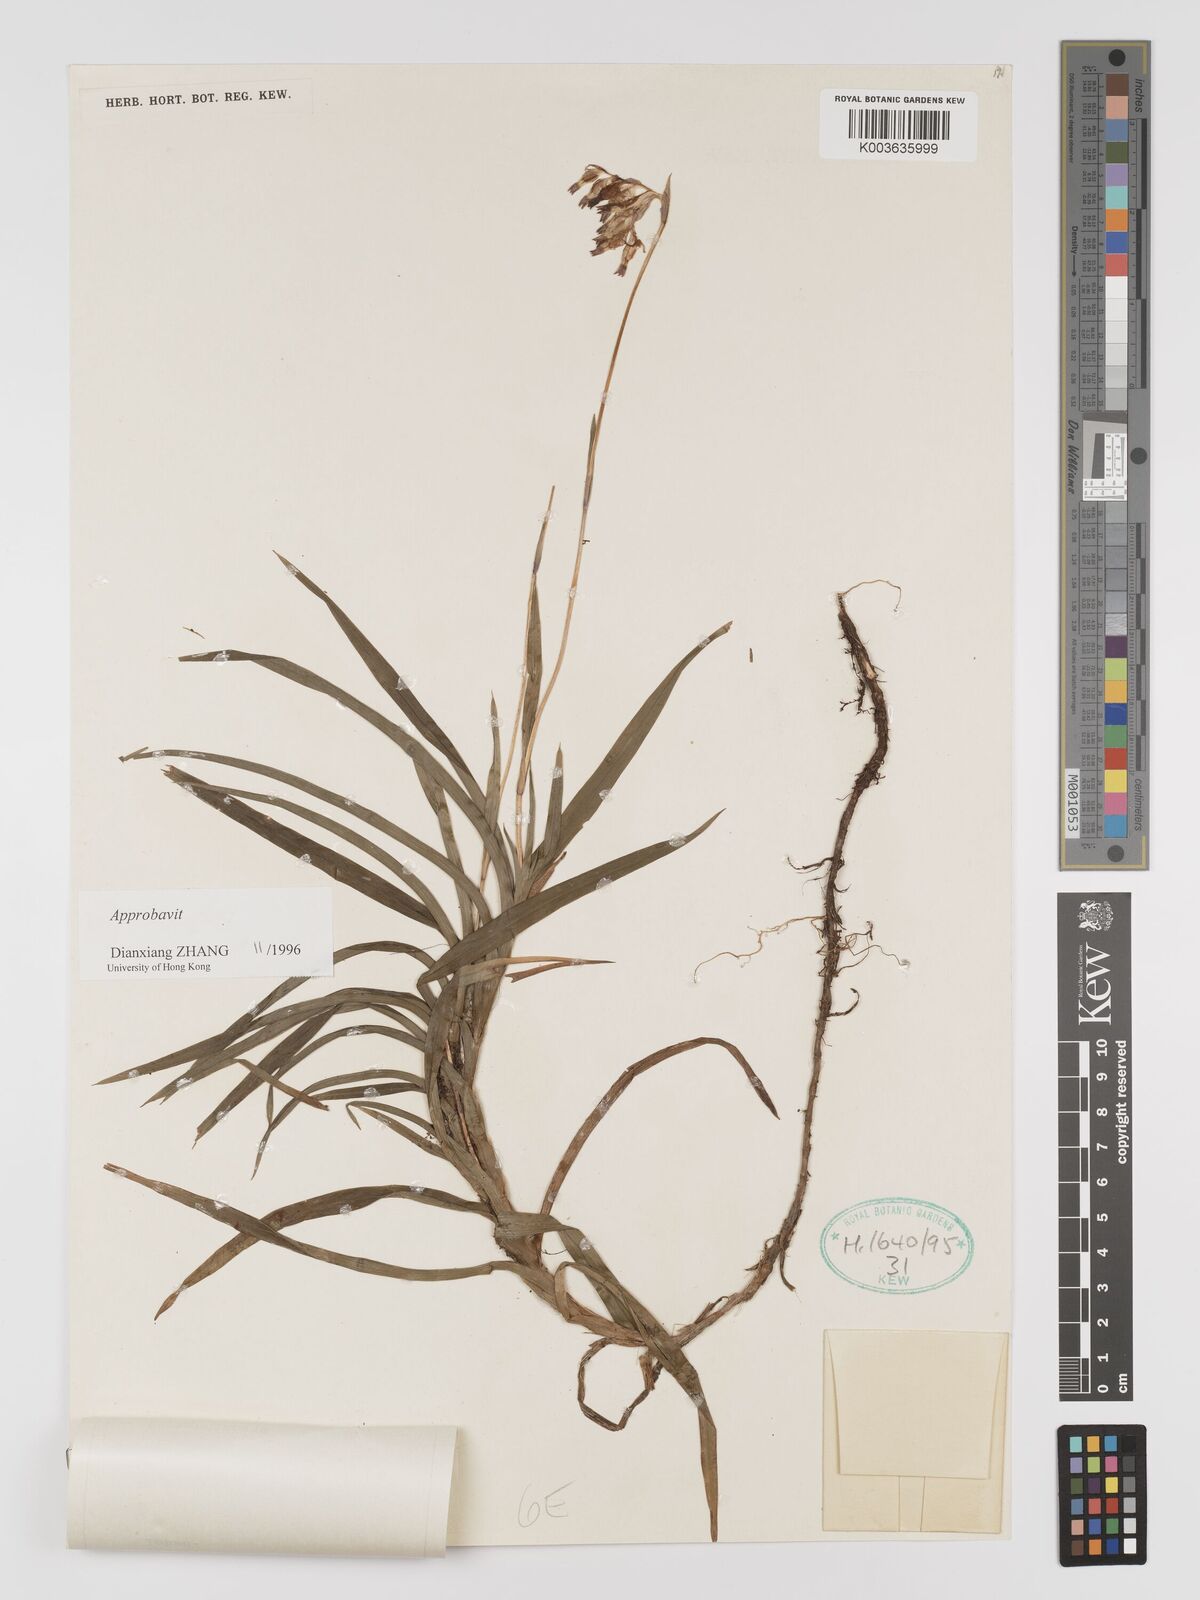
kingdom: Plantae
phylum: Tracheophyta
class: Liliopsida
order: Dioscoreales
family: Burmanniaceae
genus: Burmannia
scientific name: Burmannia
